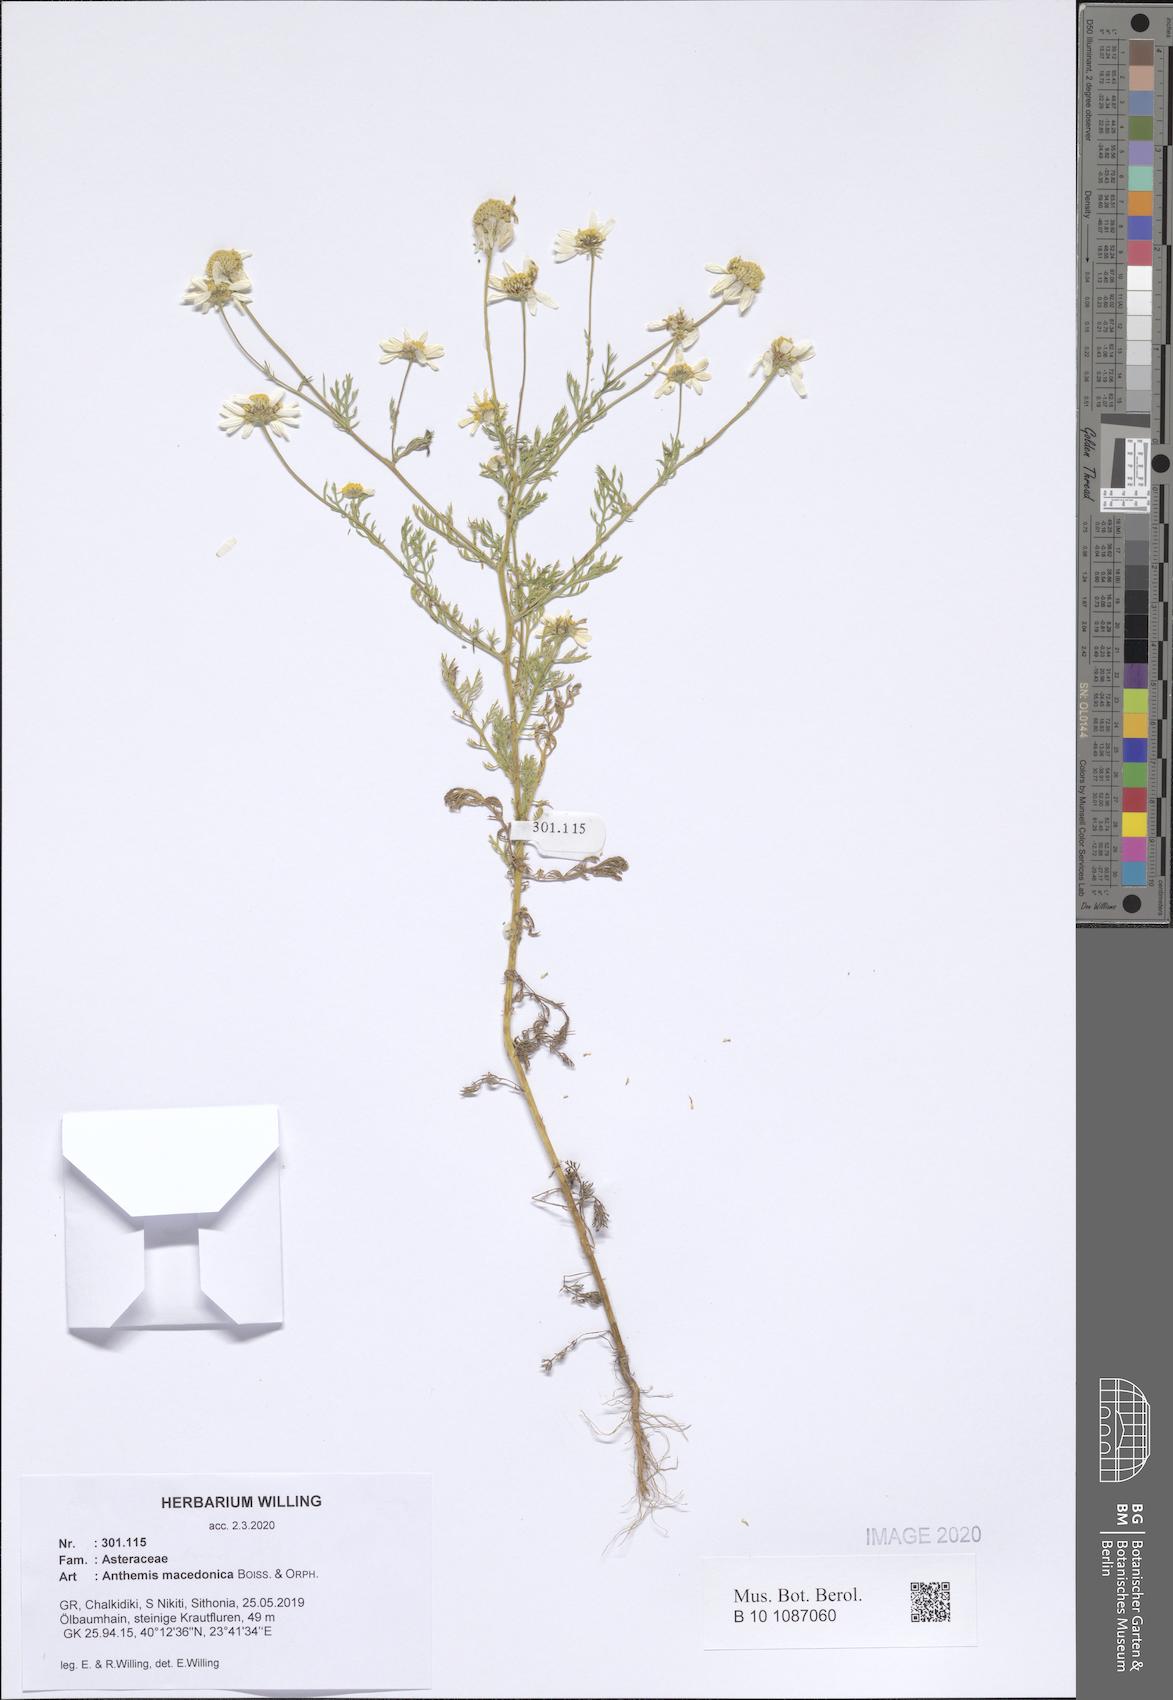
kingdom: Plantae
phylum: Tracheophyta
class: Magnoliopsida
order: Asterales
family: Asteraceae
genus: Anthemis
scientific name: Anthemis macedonica
